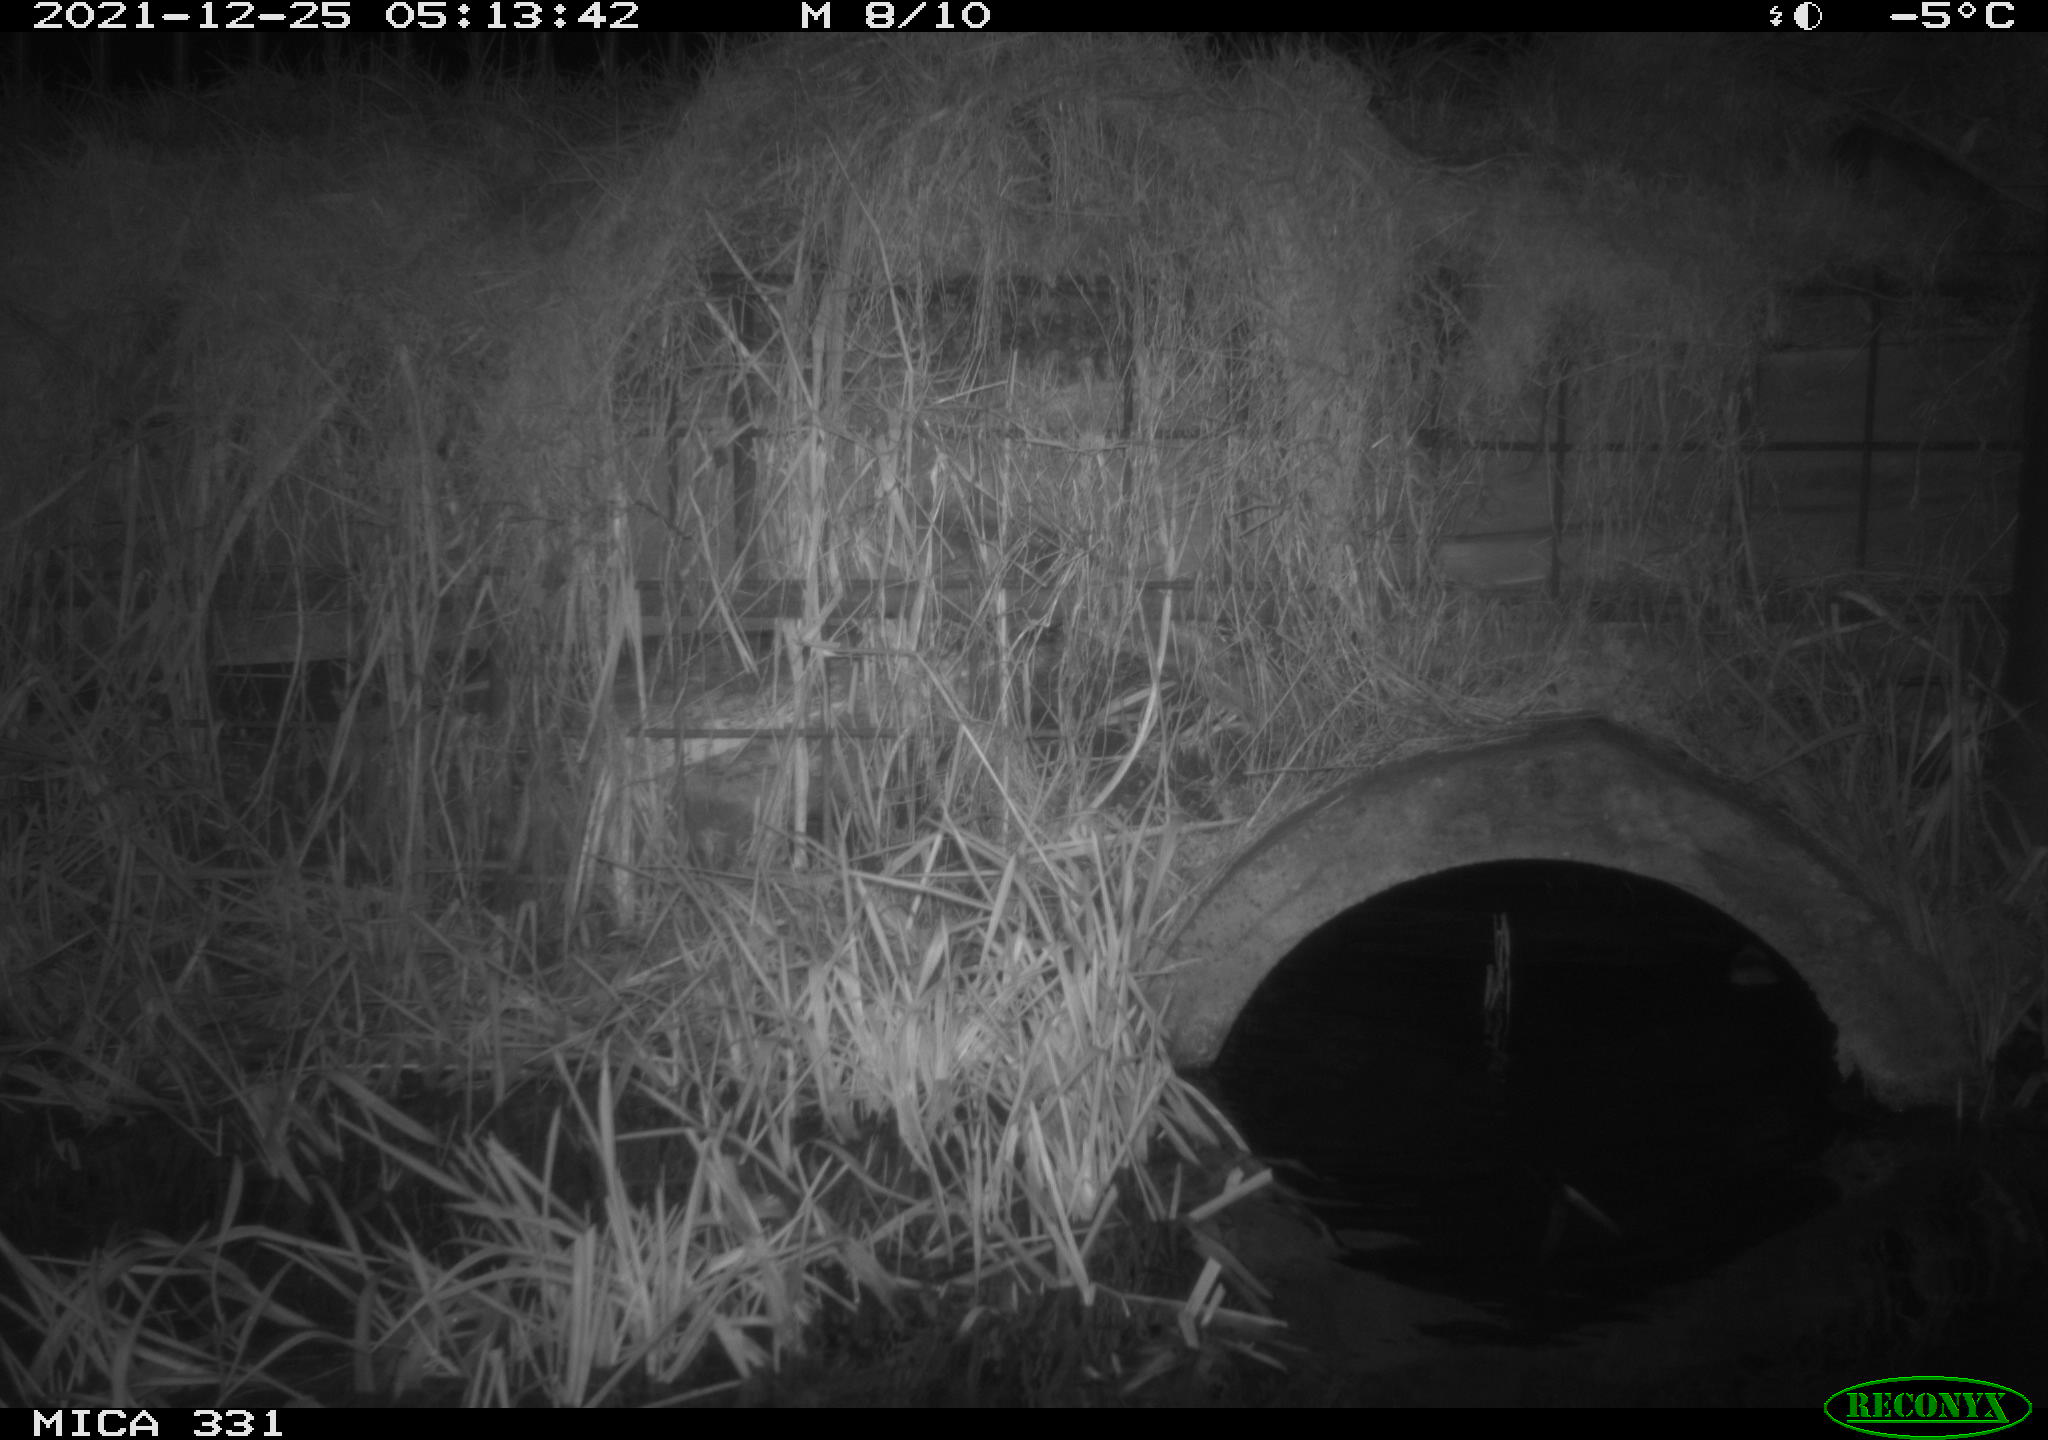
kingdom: Animalia
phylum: Chordata
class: Mammalia
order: Rodentia
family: Muridae
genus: Rattus
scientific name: Rattus norvegicus
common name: Brown rat
